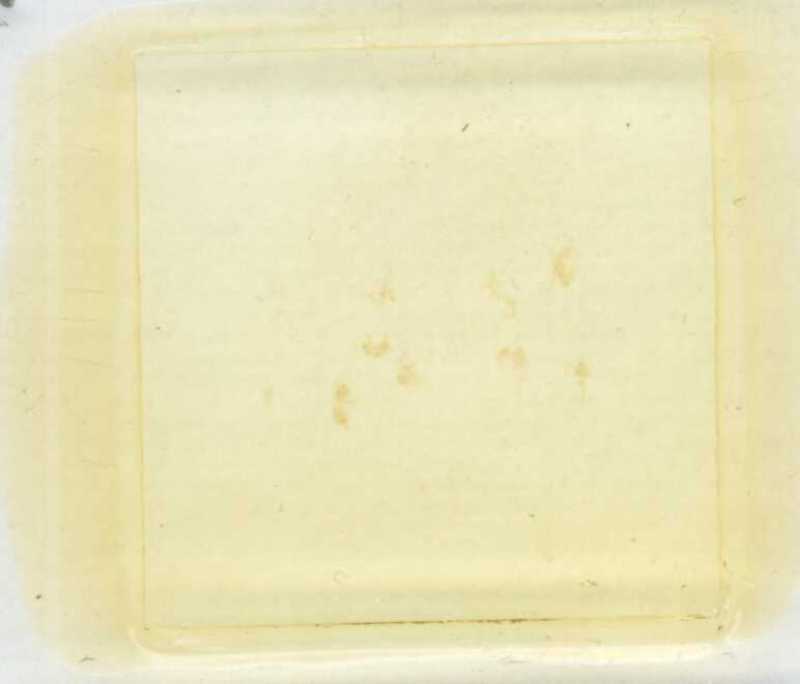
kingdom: Animalia
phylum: Arthropoda
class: Diplopoda
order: Polyxenida
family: Lophoproctidae
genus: Lophoturus
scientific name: Lophoturus queenslandicus
